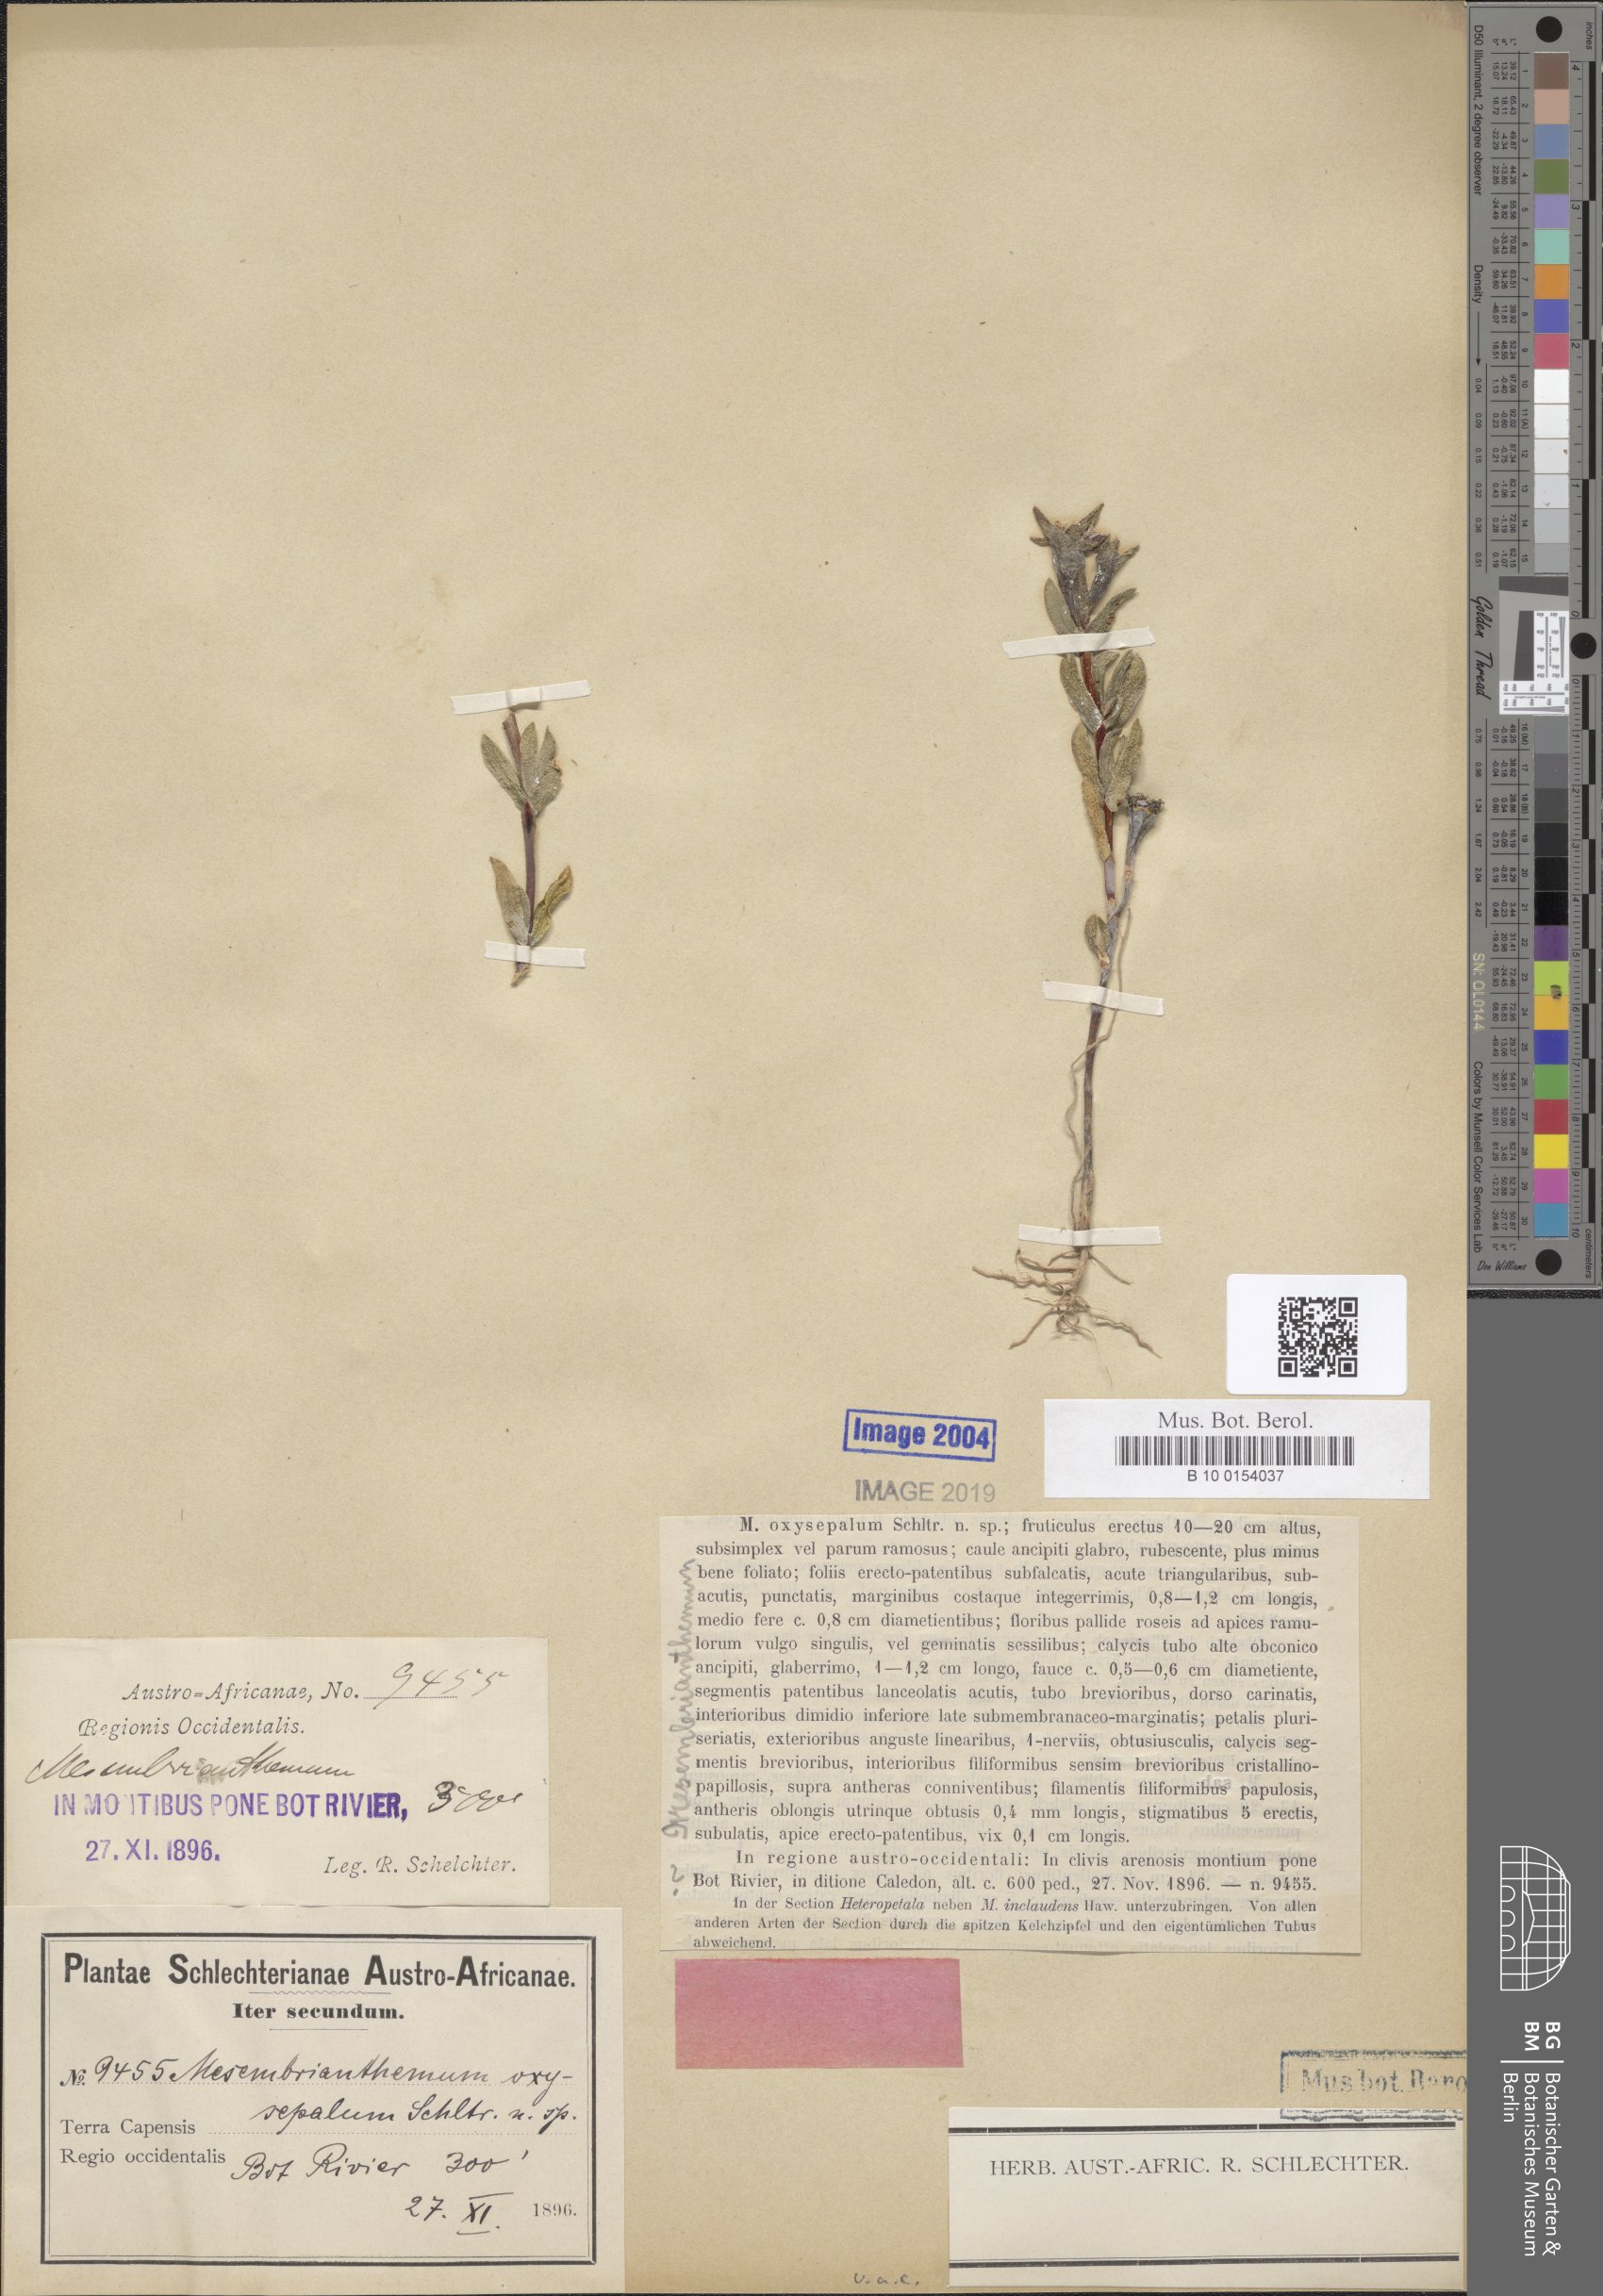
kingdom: Plantae
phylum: Tracheophyta
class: Magnoliopsida
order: Caryophyllales
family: Aizoaceae
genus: Erepsia
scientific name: Erepsia oxysepala
